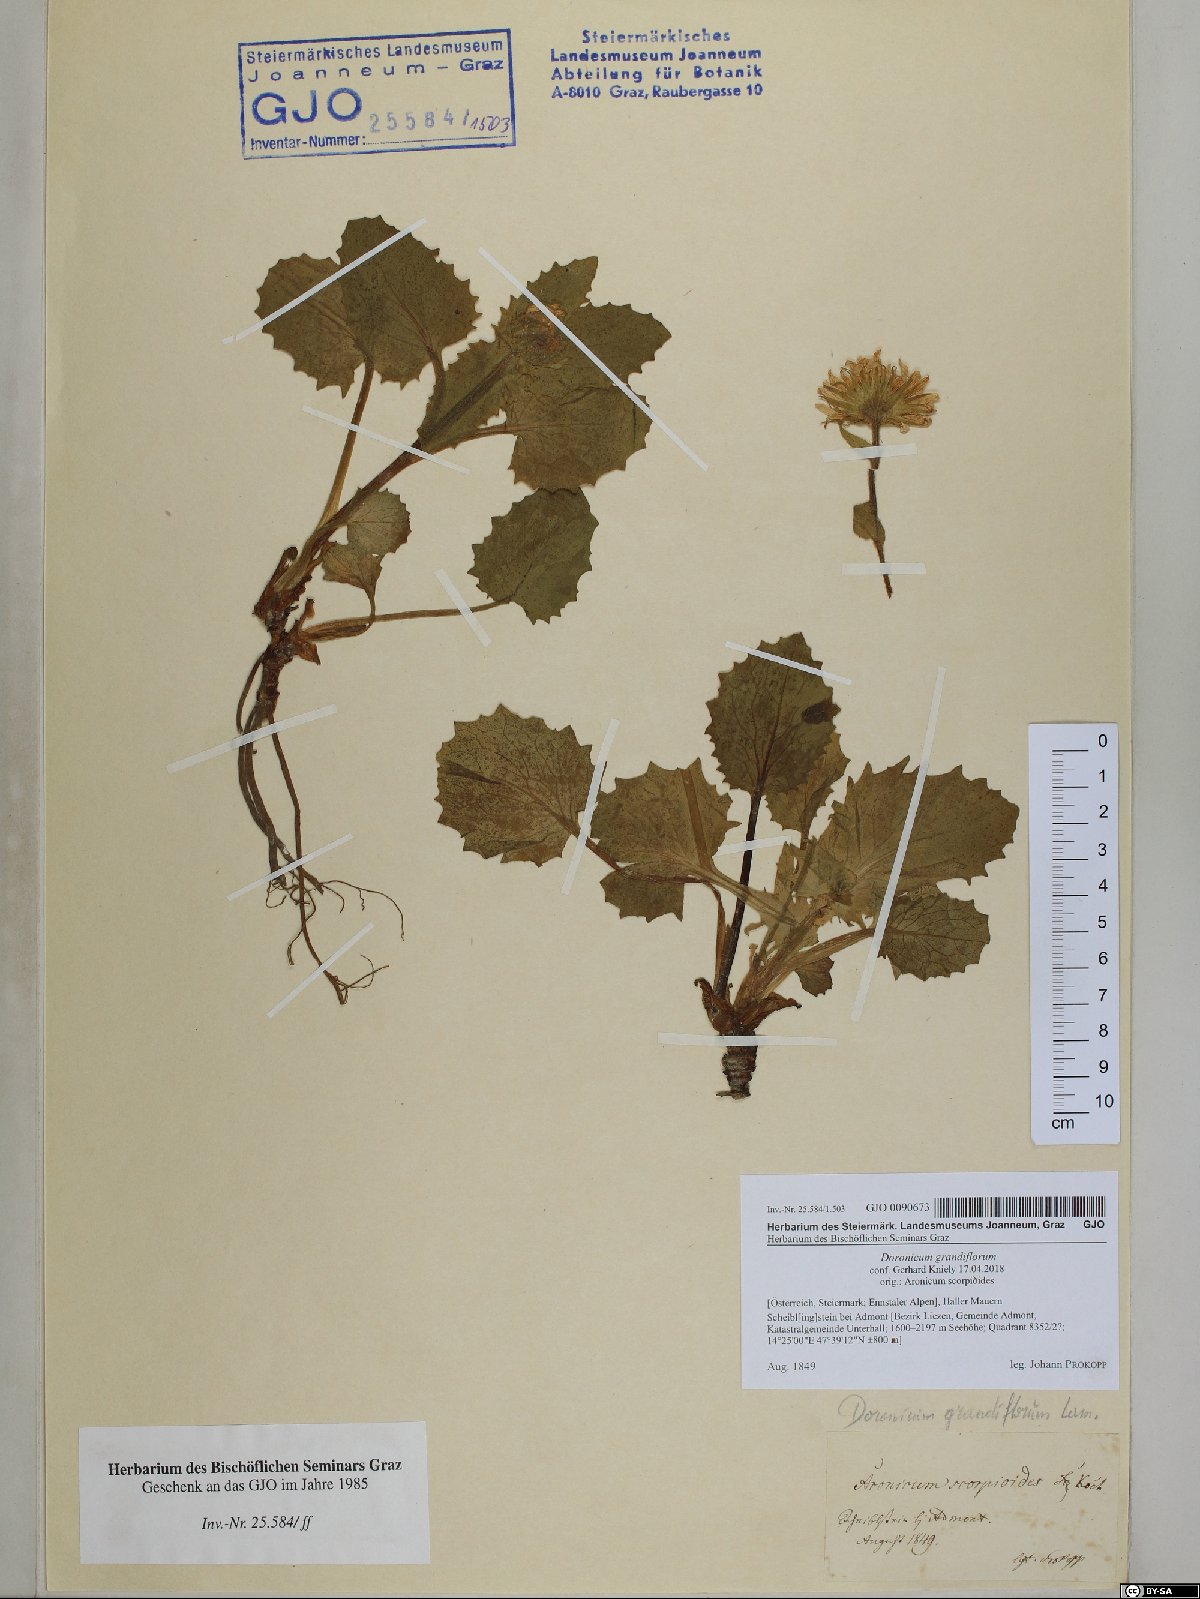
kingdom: Plantae
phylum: Tracheophyta
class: Magnoliopsida
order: Asterales
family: Asteraceae
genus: Doronicum
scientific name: Doronicum grandiflorum
